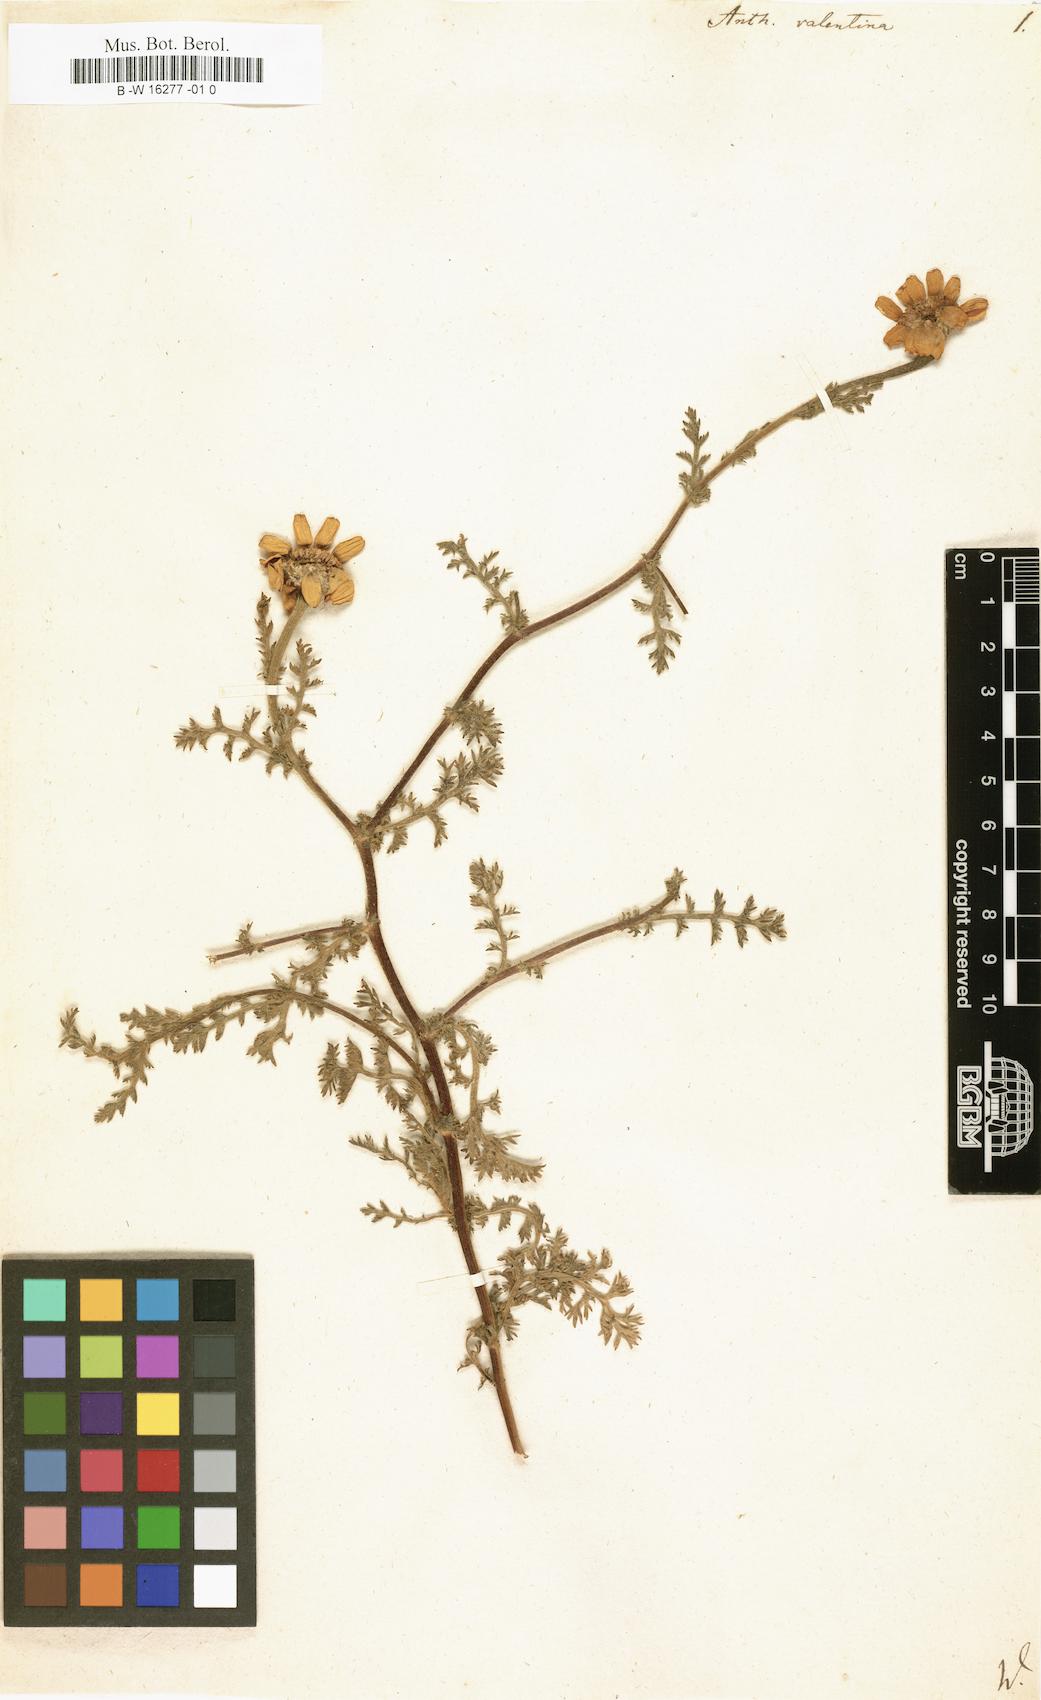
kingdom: Plantae
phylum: Tracheophyta
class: Magnoliopsida
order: Asterales
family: Asteraceae
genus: Anacyclus
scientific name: Anacyclus radiatus
